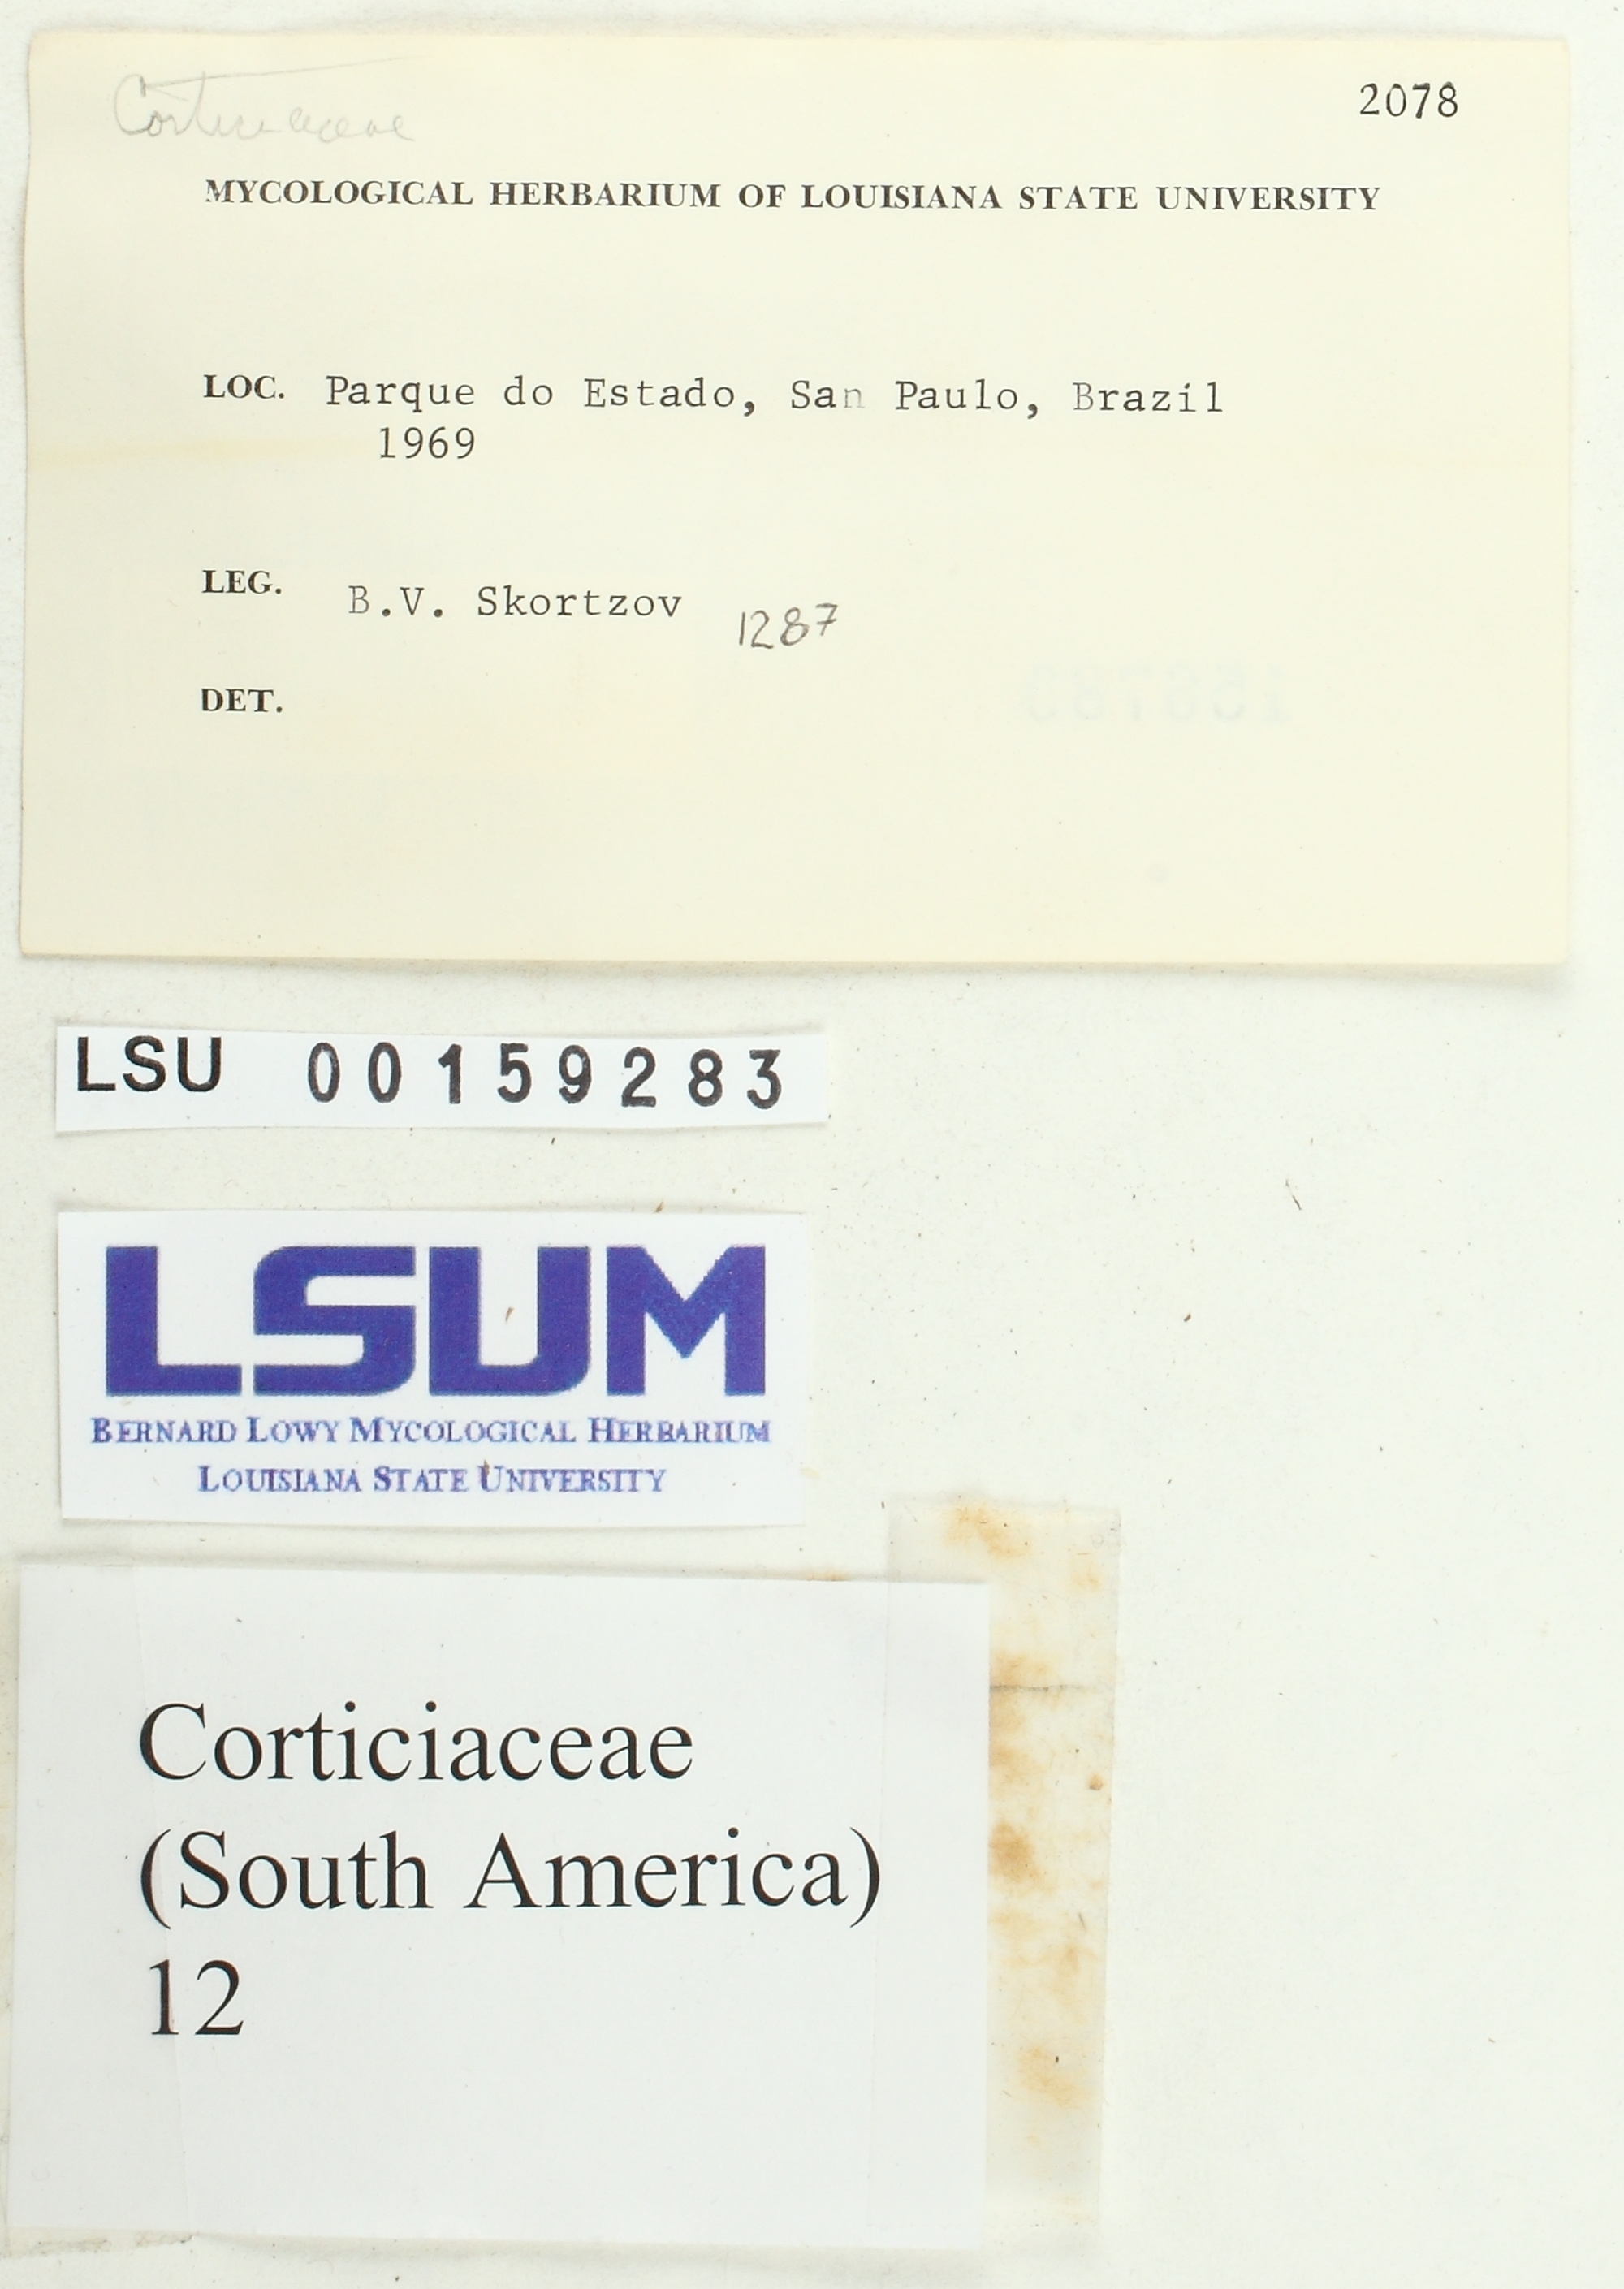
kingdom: Fungi
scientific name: Fungi
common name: Fungi
